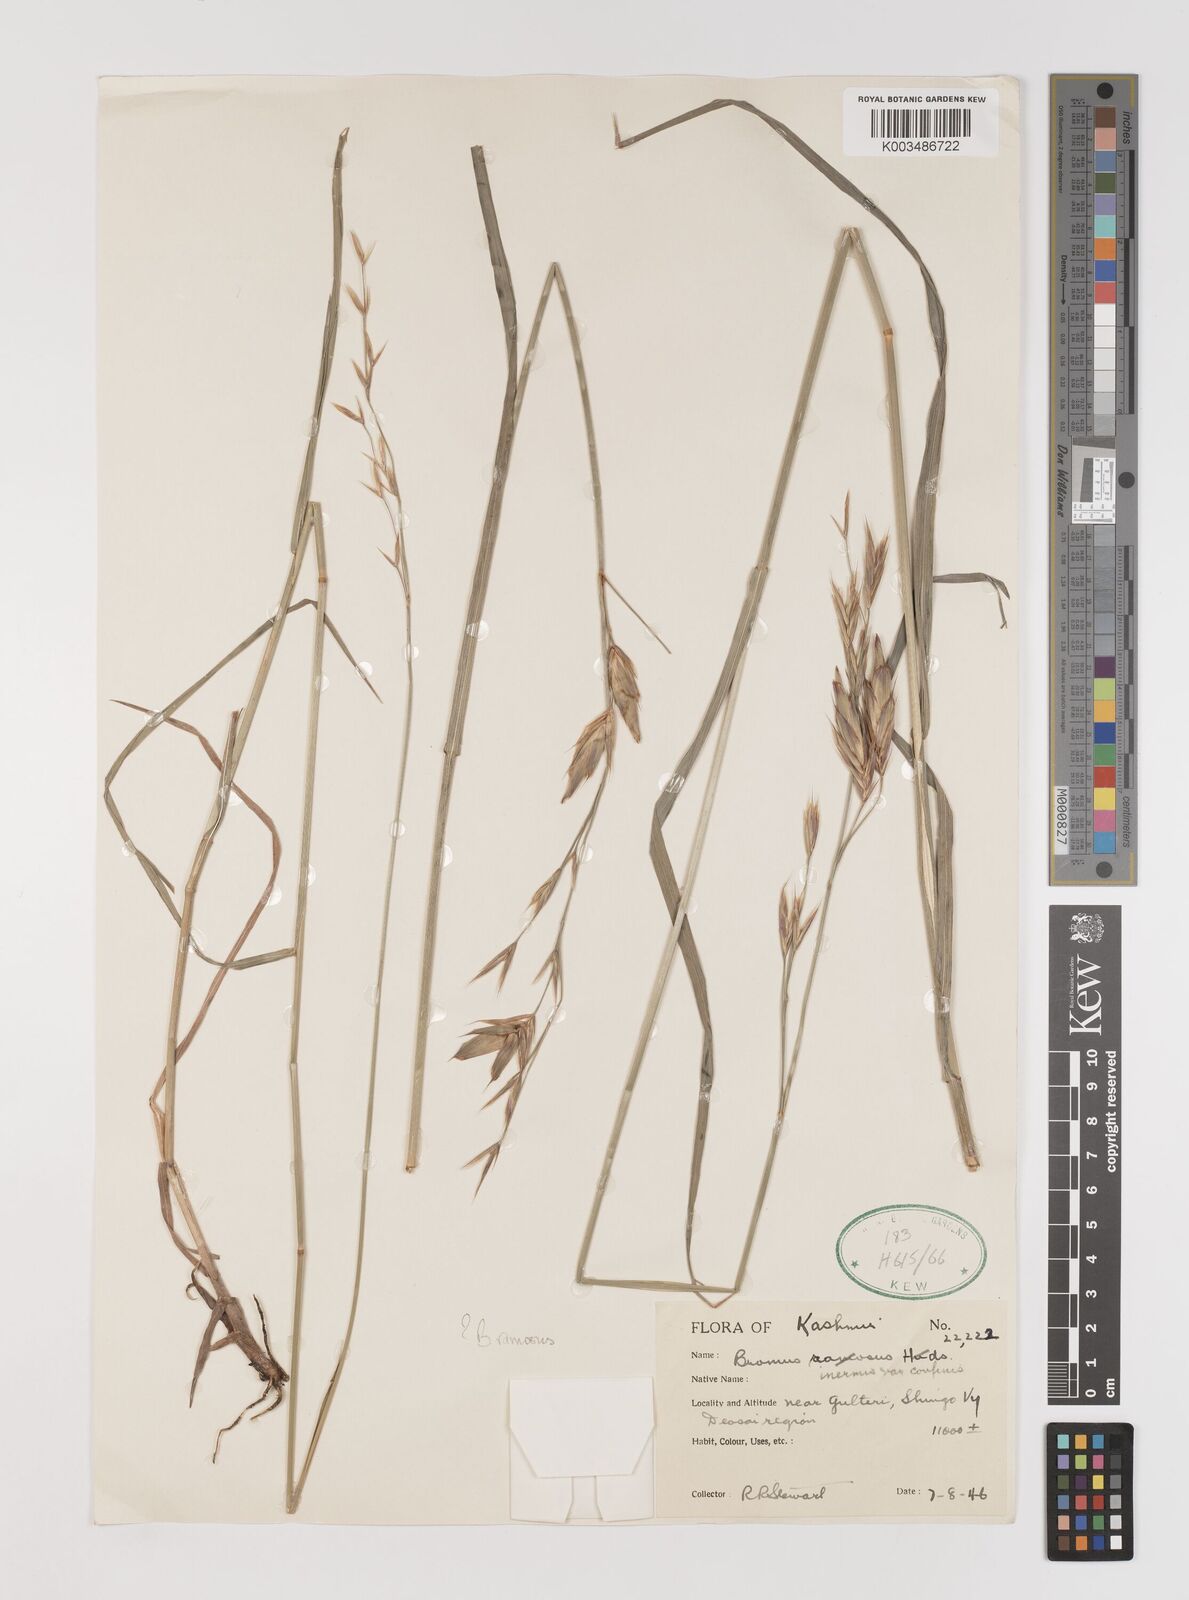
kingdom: Plantae
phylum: Tracheophyta
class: Liliopsida
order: Poales
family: Poaceae
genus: Brachypodium
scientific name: Brachypodium retusum
